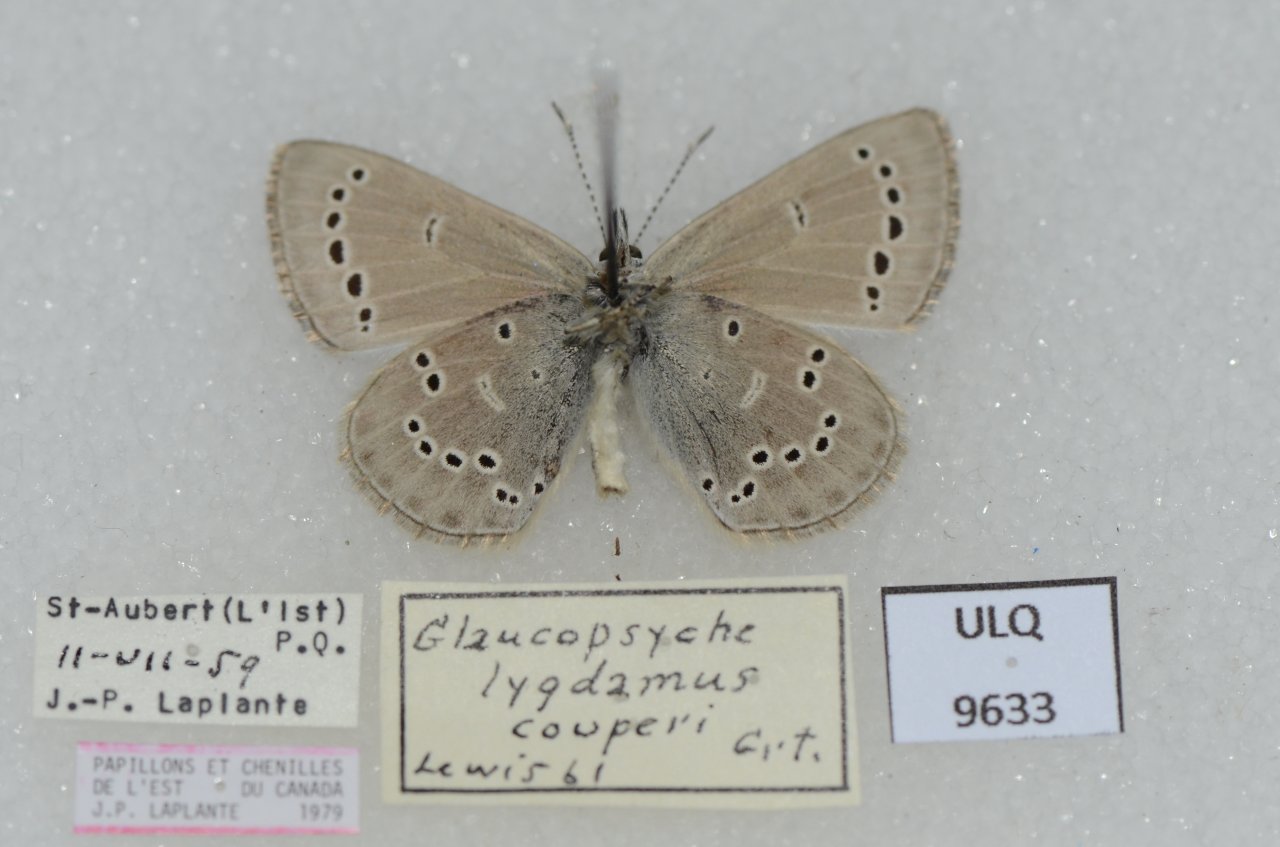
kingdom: Animalia
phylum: Arthropoda
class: Insecta
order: Lepidoptera
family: Lycaenidae
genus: Glaucopsyche
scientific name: Glaucopsyche lygdamus
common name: Silvery Blue
